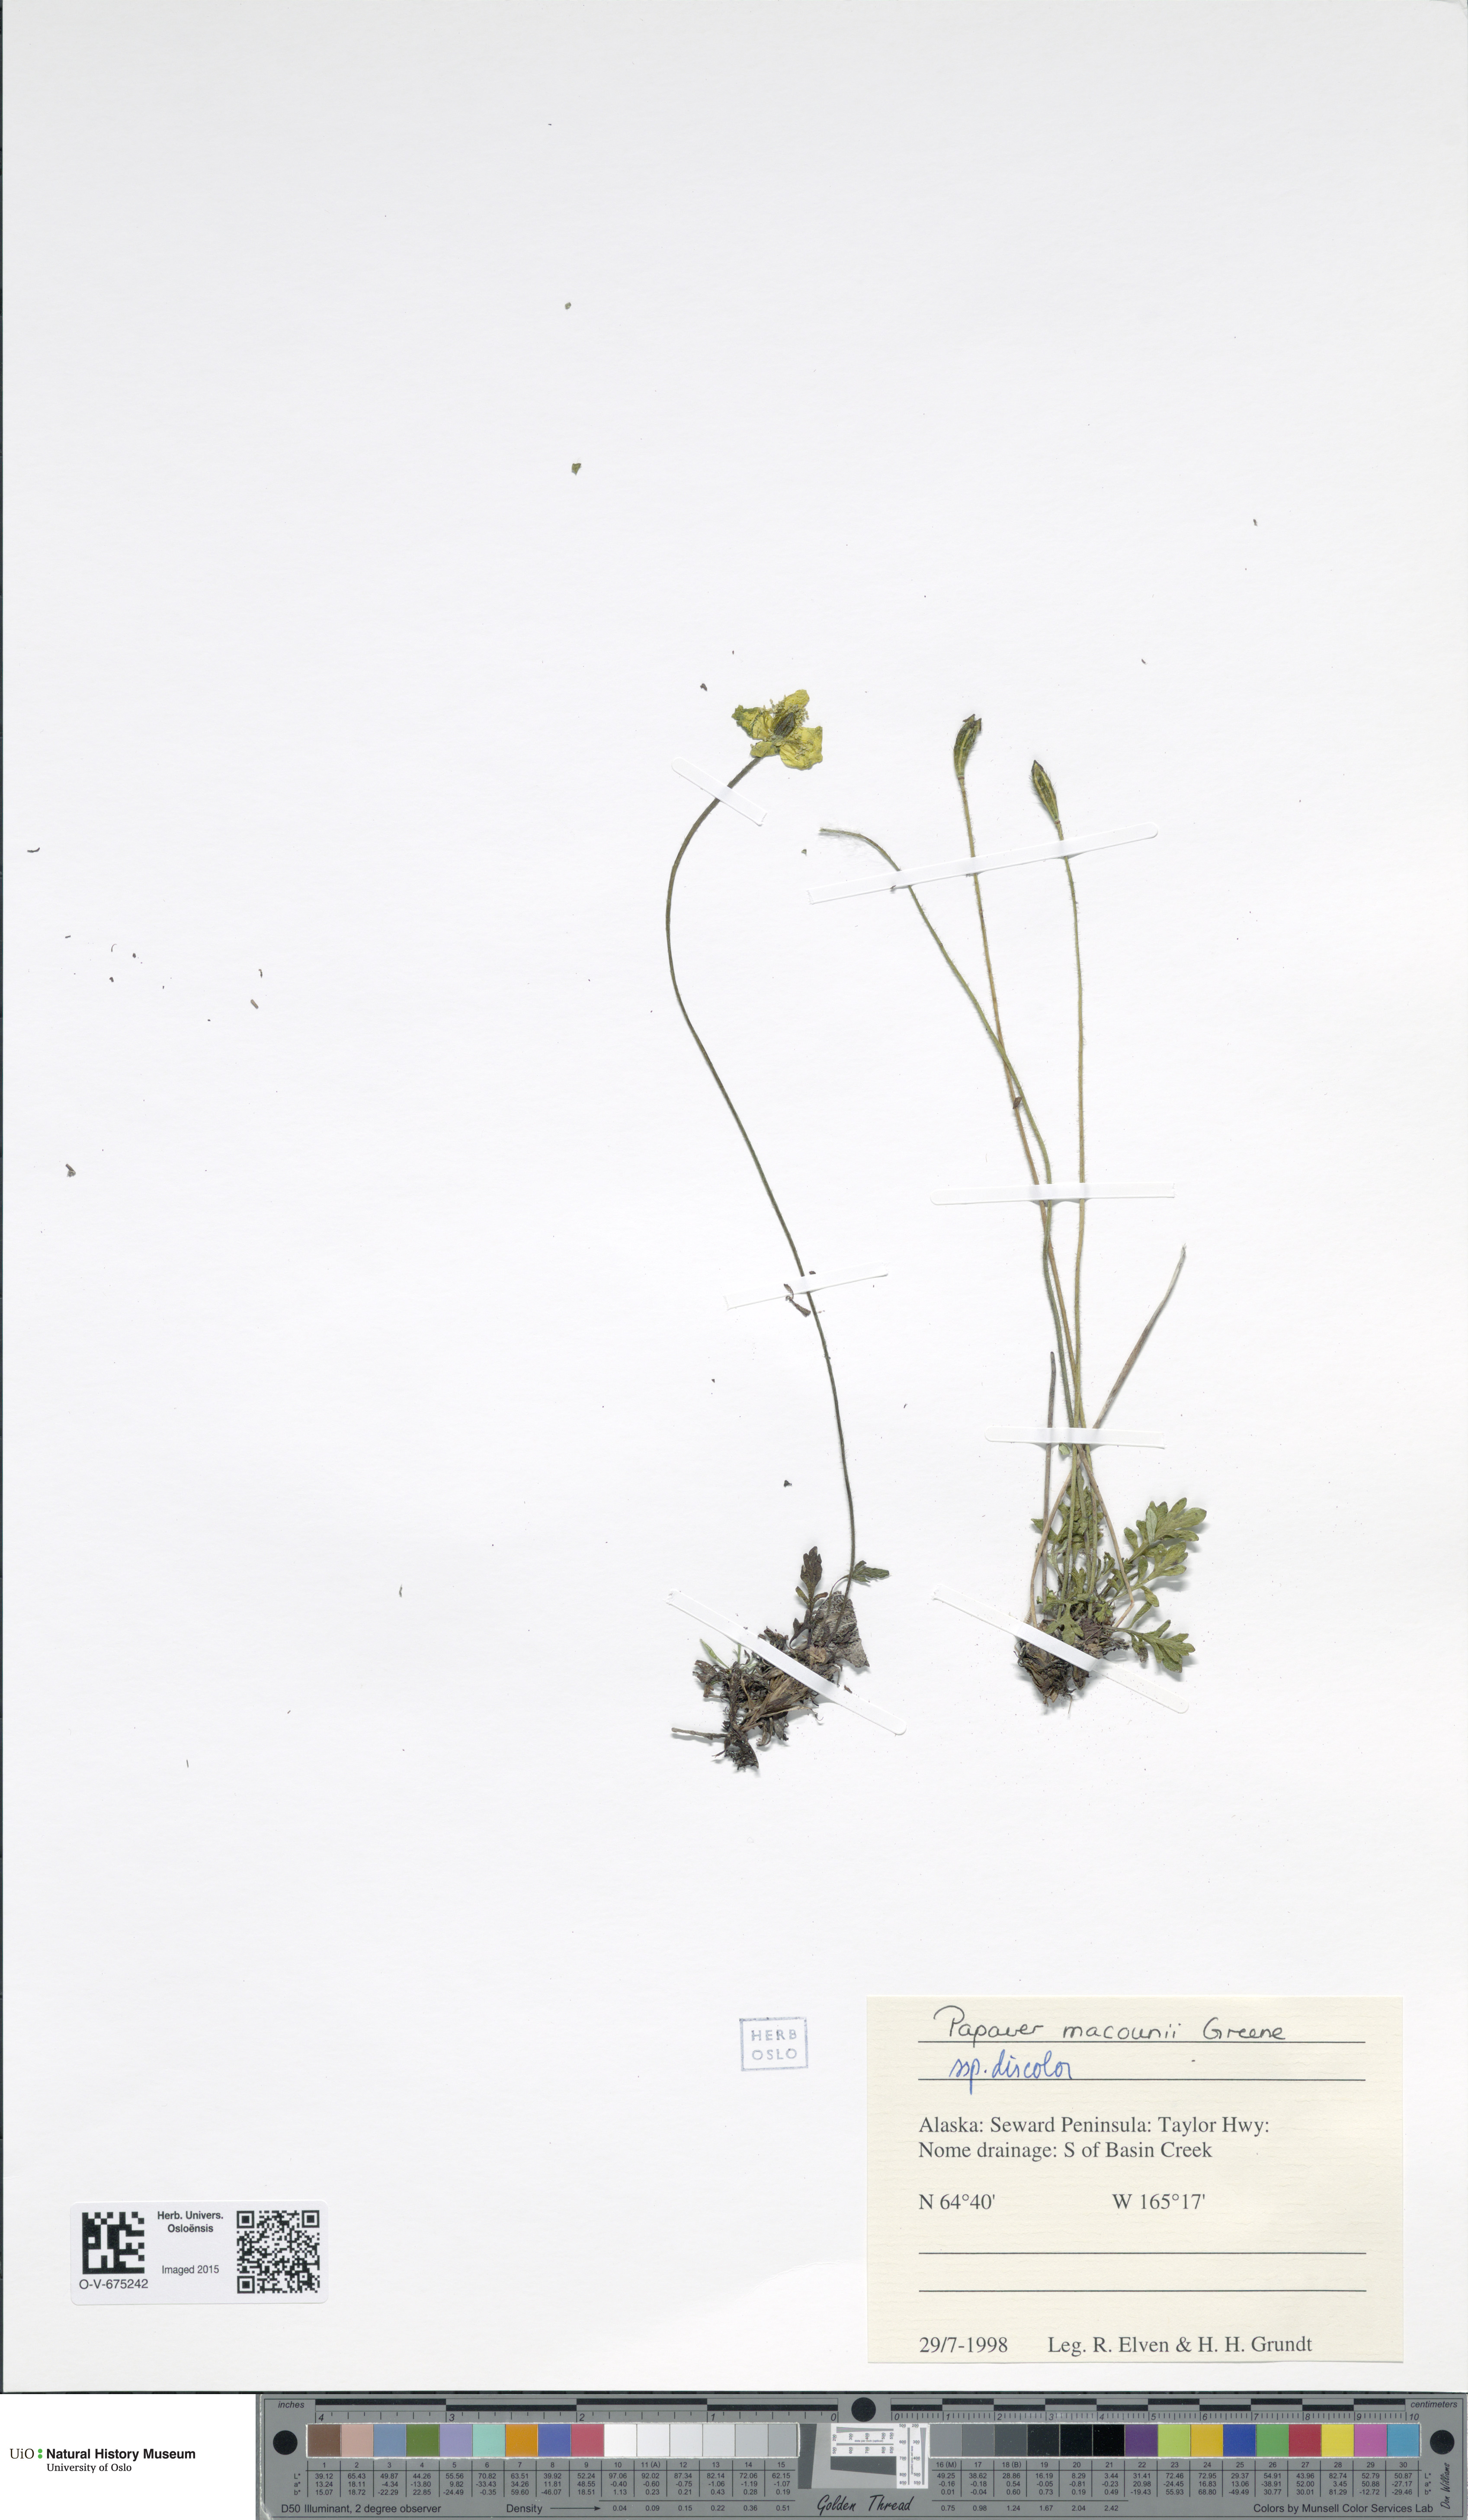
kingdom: Plantae
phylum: Tracheophyta
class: Magnoliopsida
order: Ranunculales
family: Papaveraceae
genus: Papaver
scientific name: Papaver macounii
